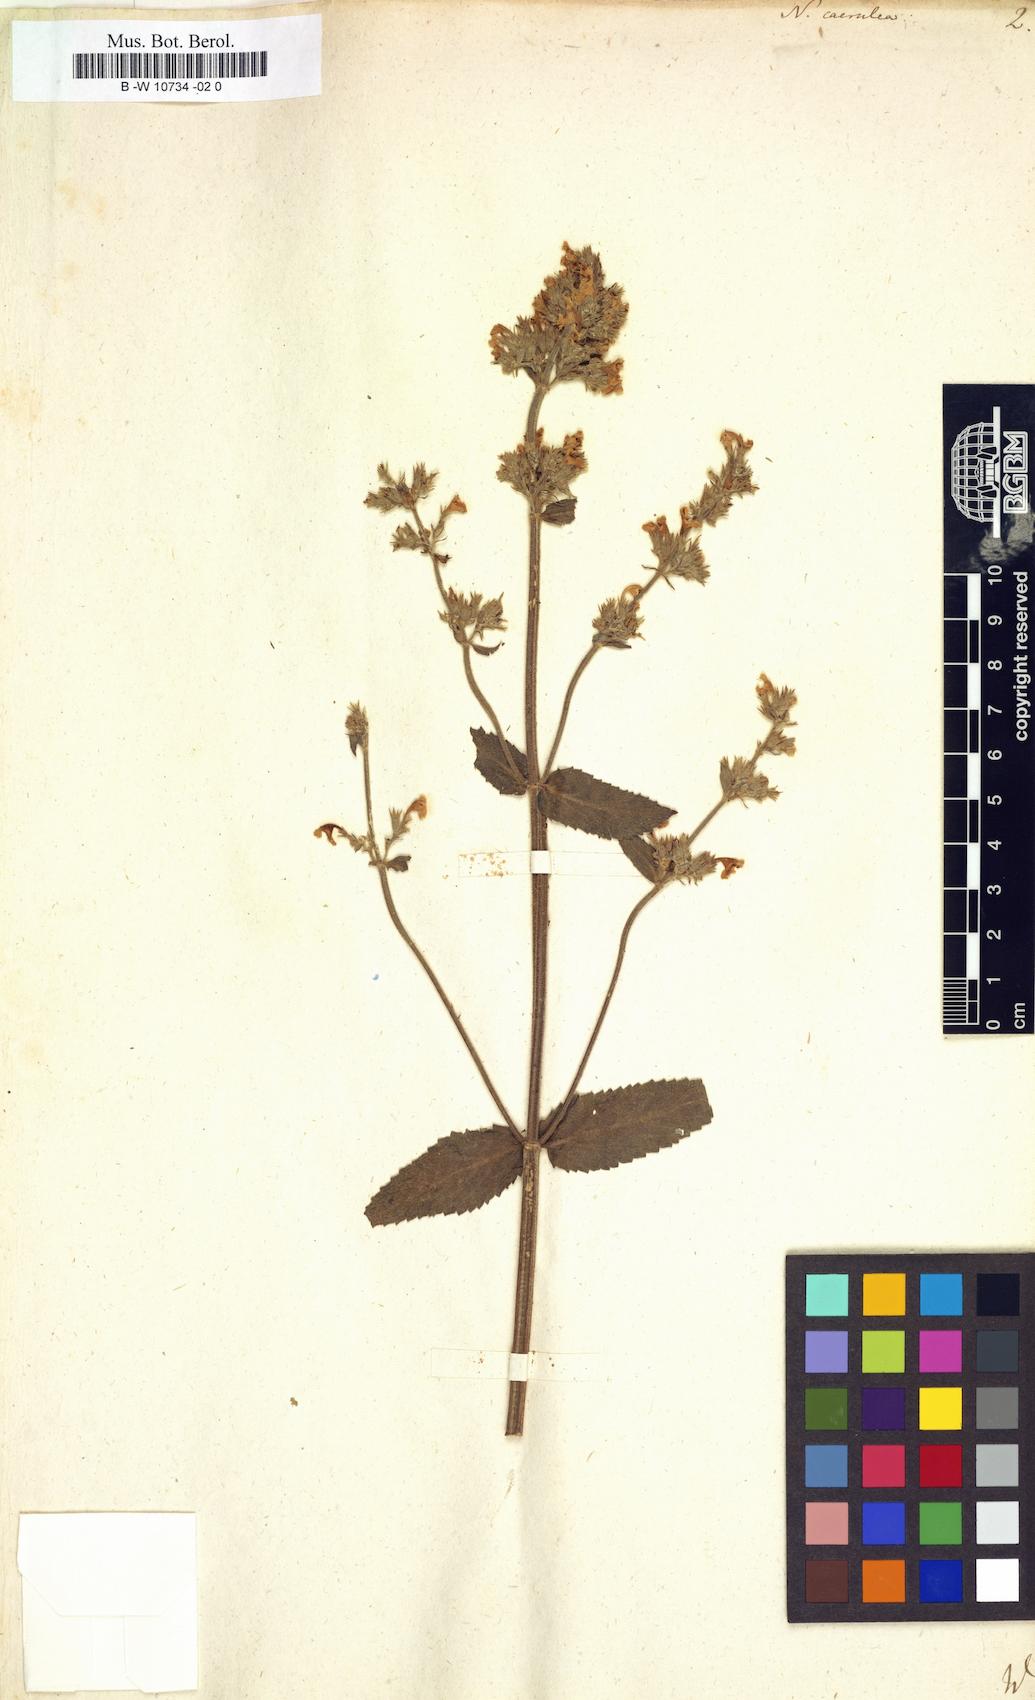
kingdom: Plantae
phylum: Tracheophyta
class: Magnoliopsida
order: Lamiales
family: Lamiaceae
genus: Nepeta
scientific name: Nepeta caerulea
